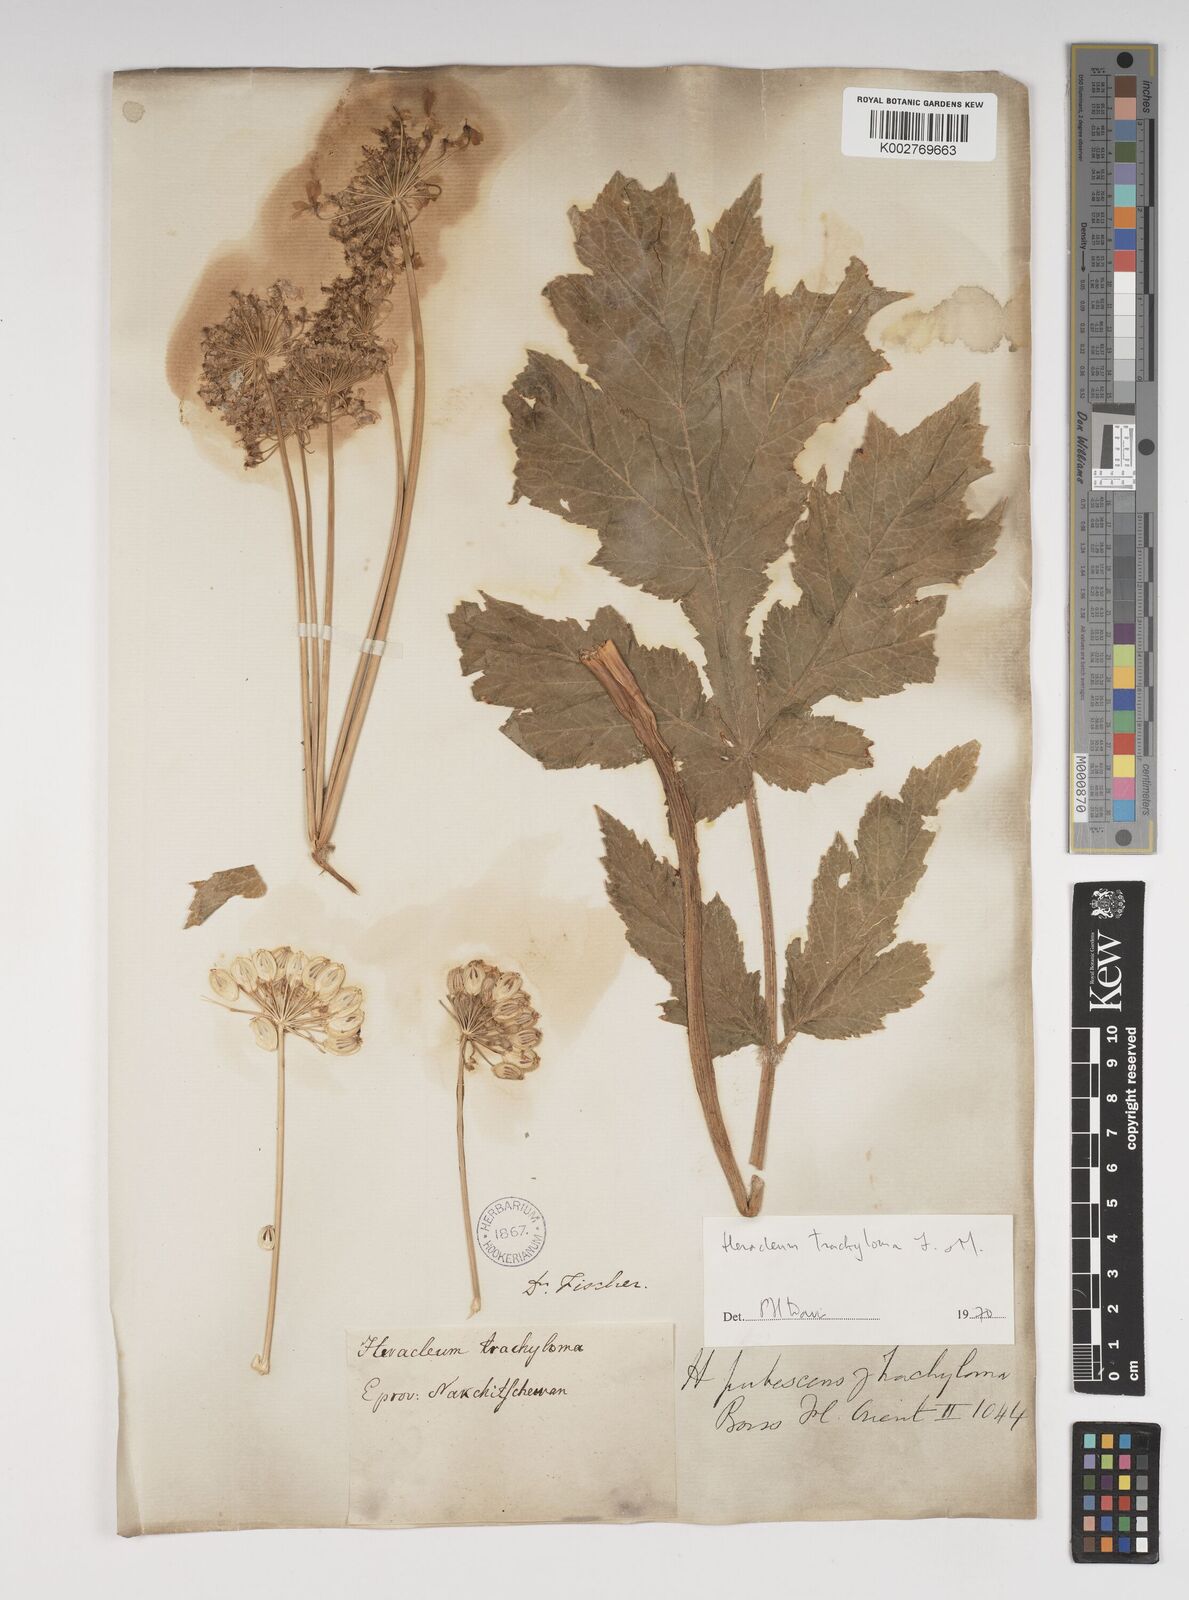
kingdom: Plantae
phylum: Tracheophyta
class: Magnoliopsida
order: Apiales
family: Apiaceae
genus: Heracleum
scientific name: Heracleum trachyloma
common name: Downy cow-parsnip
